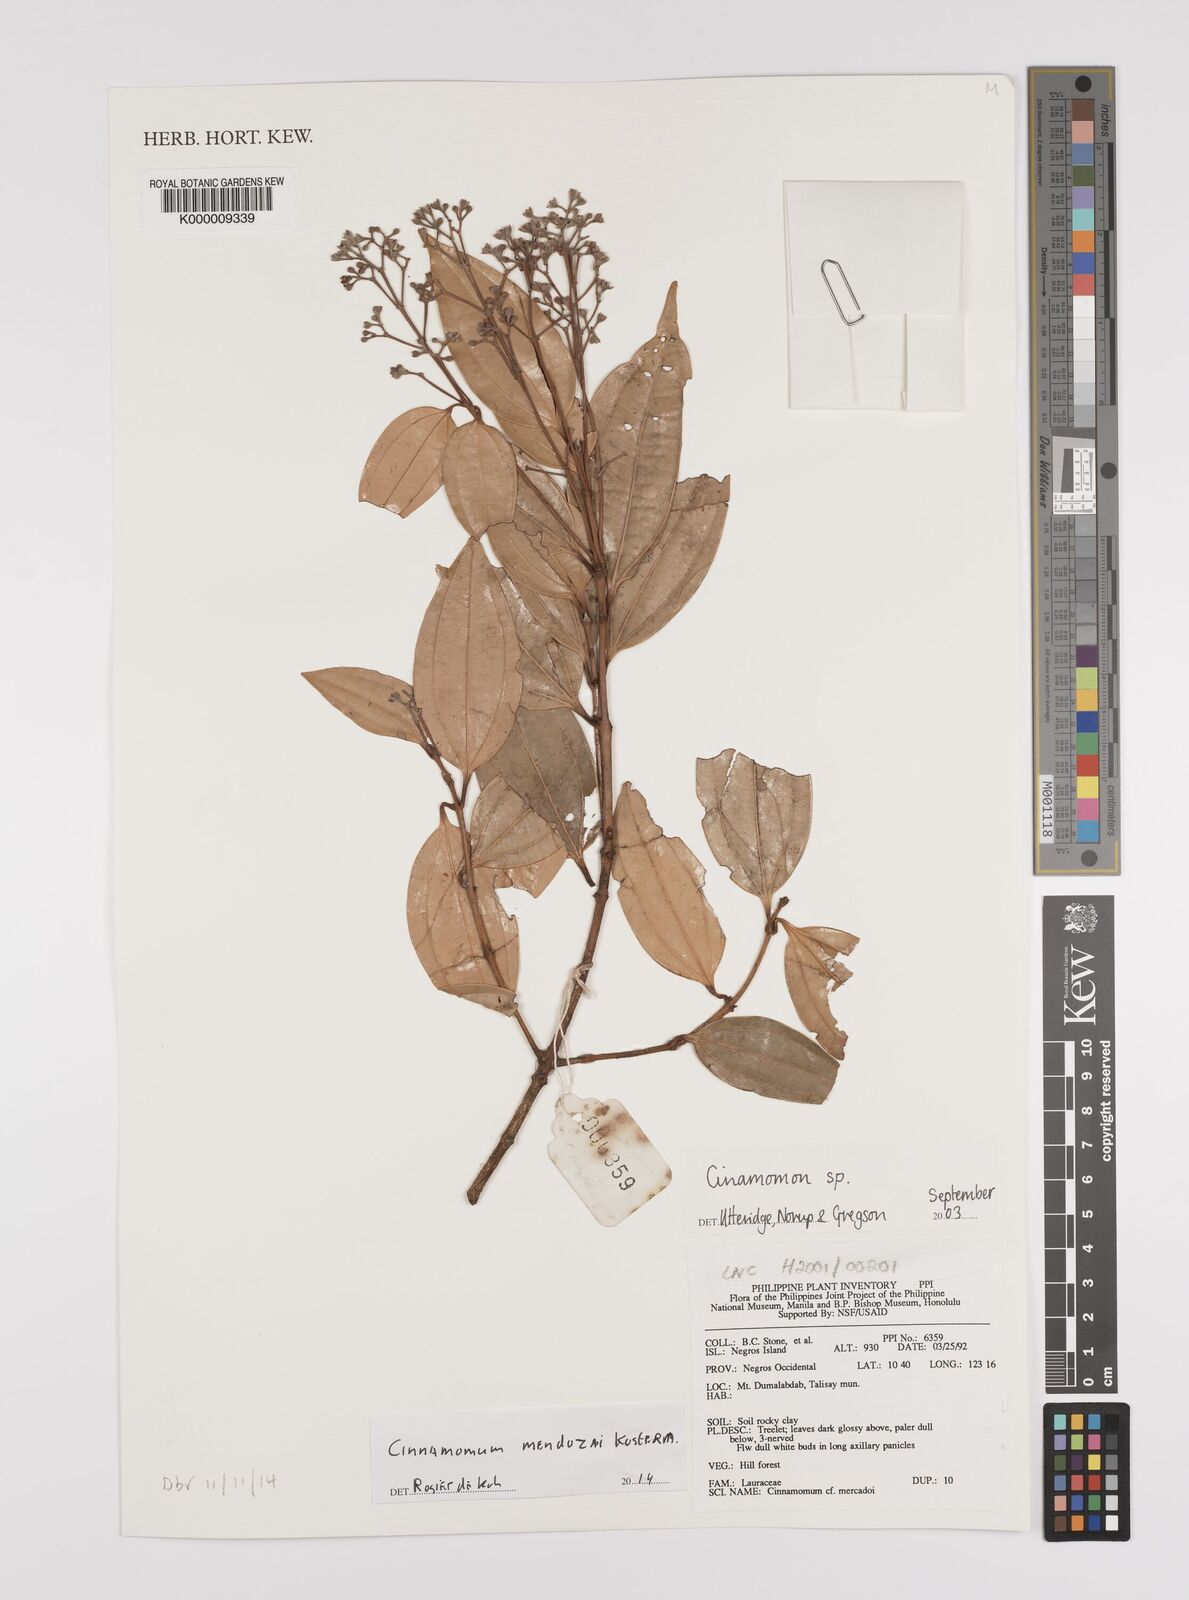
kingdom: Plantae
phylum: Tracheophyta
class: Magnoliopsida
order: Laurales
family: Lauraceae
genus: Cinnamomum
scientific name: Cinnamomum
